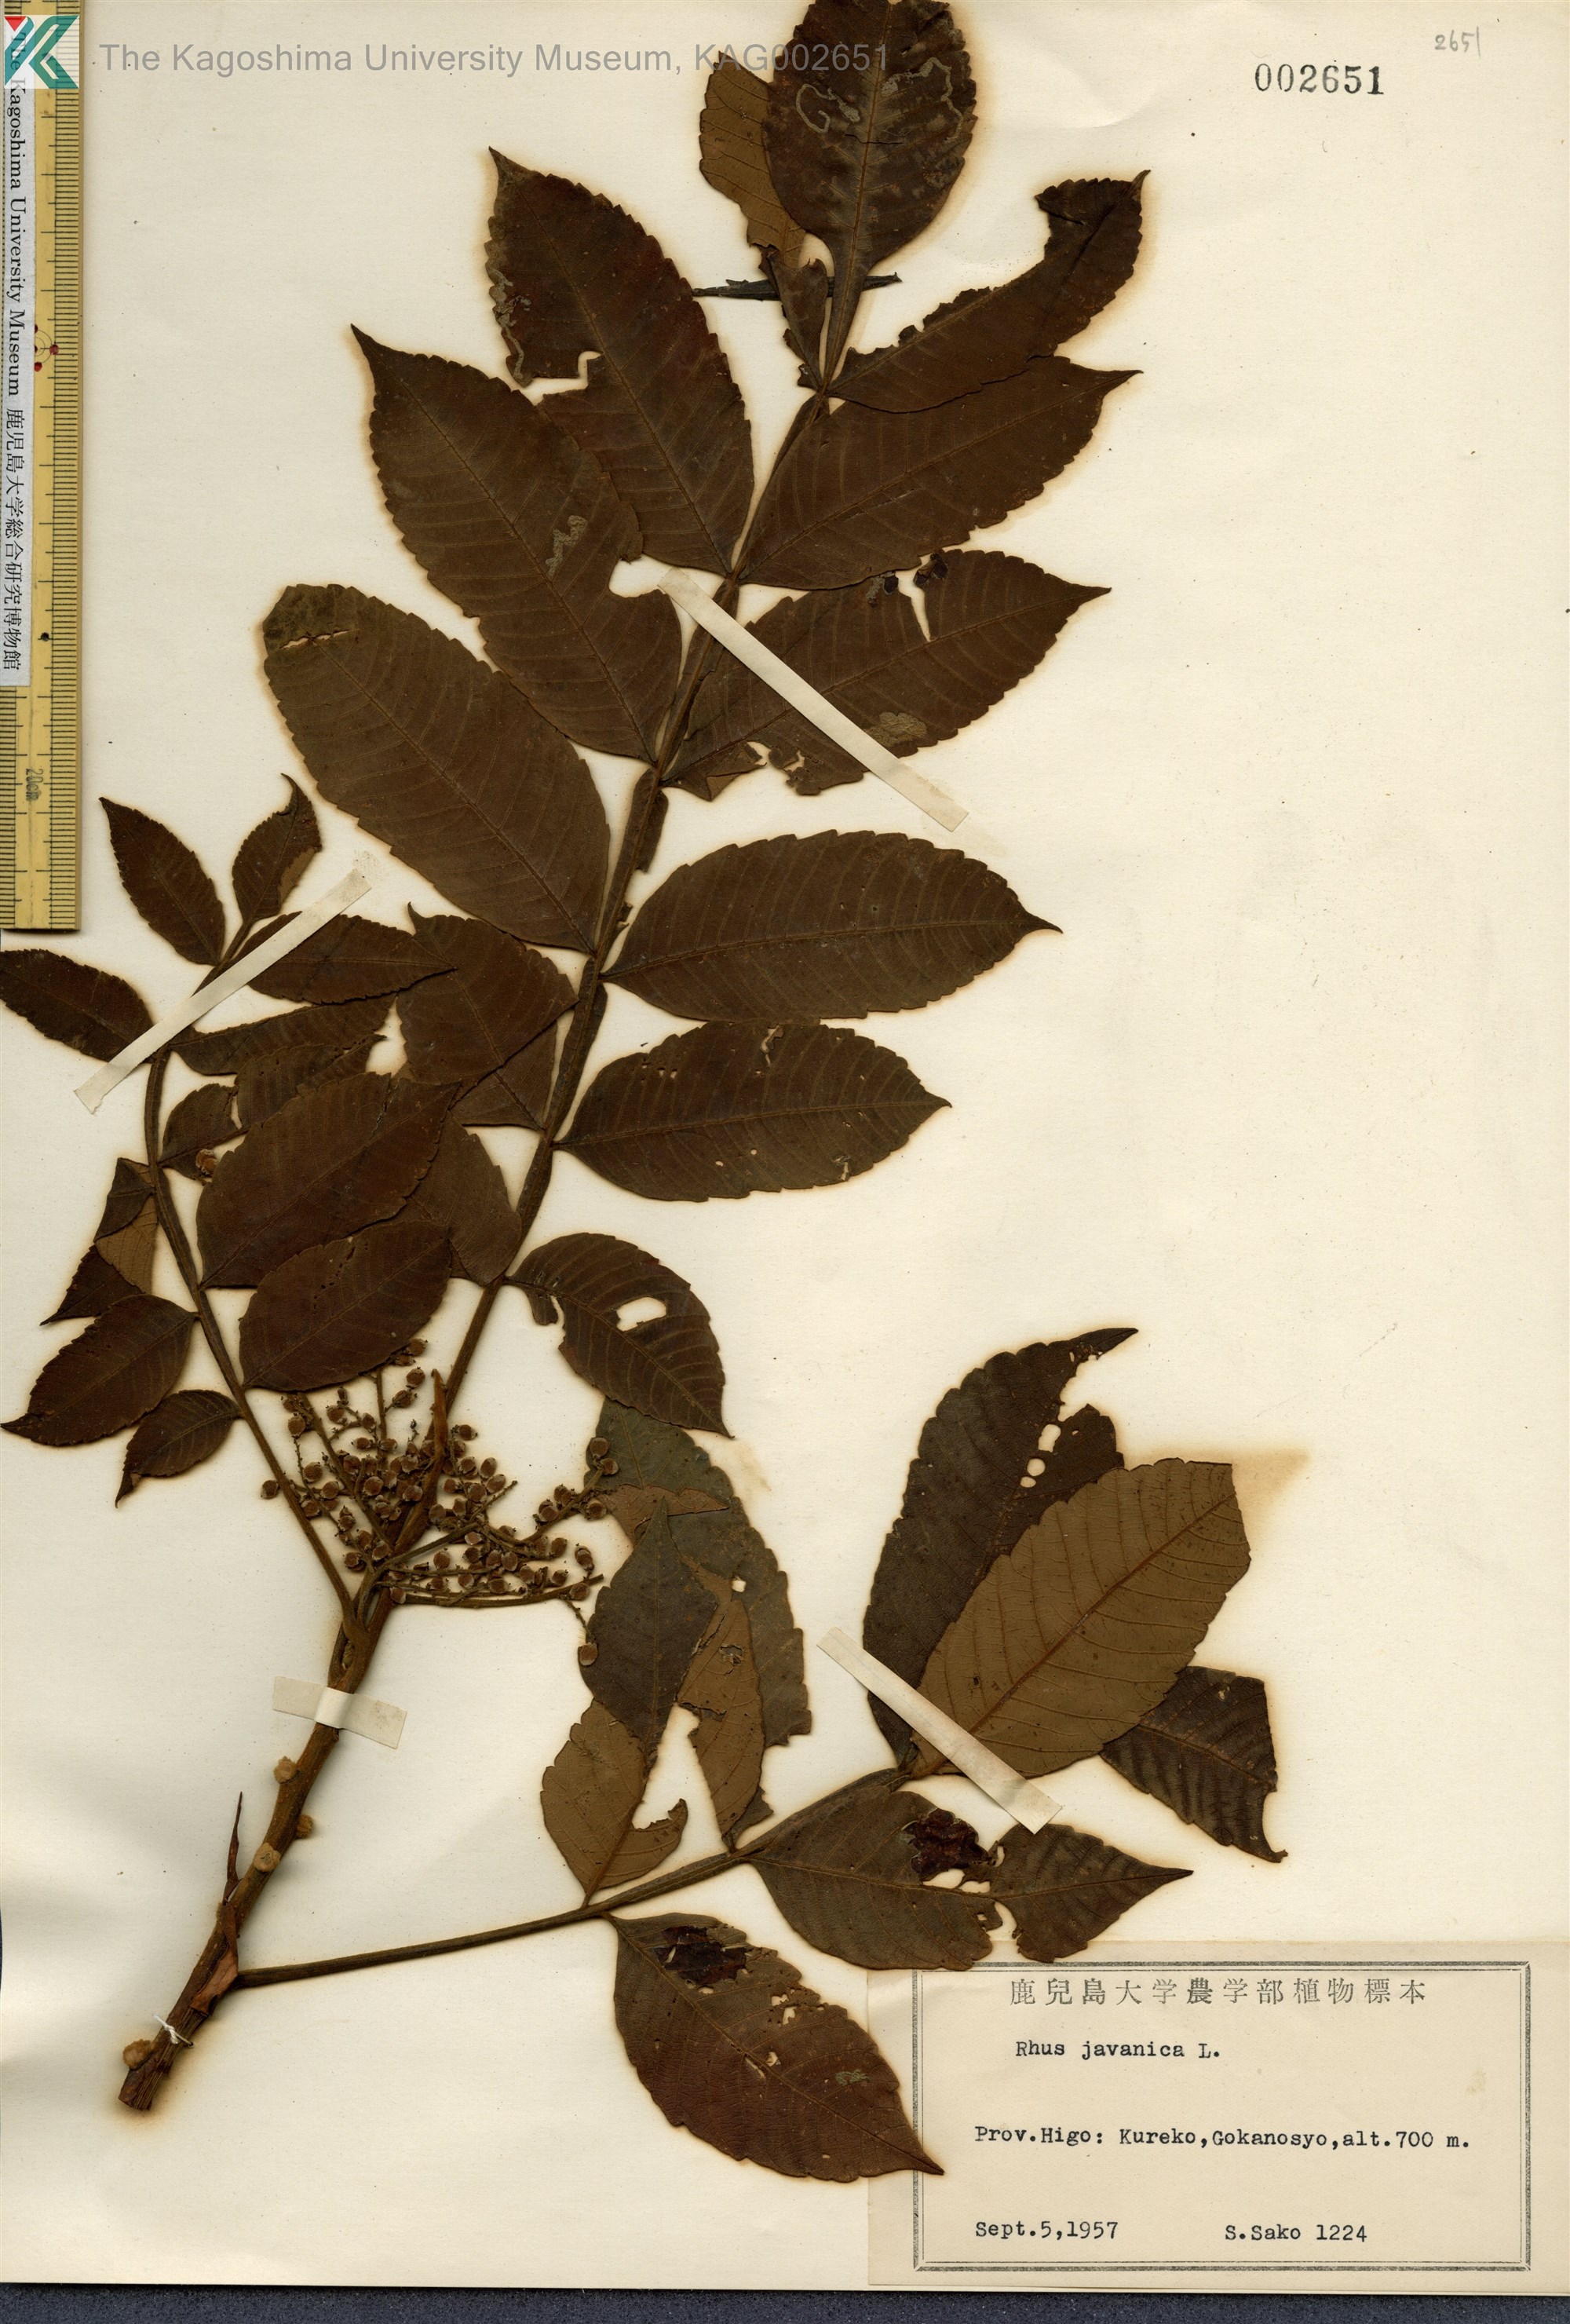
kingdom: Plantae
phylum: Tracheophyta
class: Magnoliopsida
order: Sapindales
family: Simaroubaceae
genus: Brucea
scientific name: Brucea javanica
